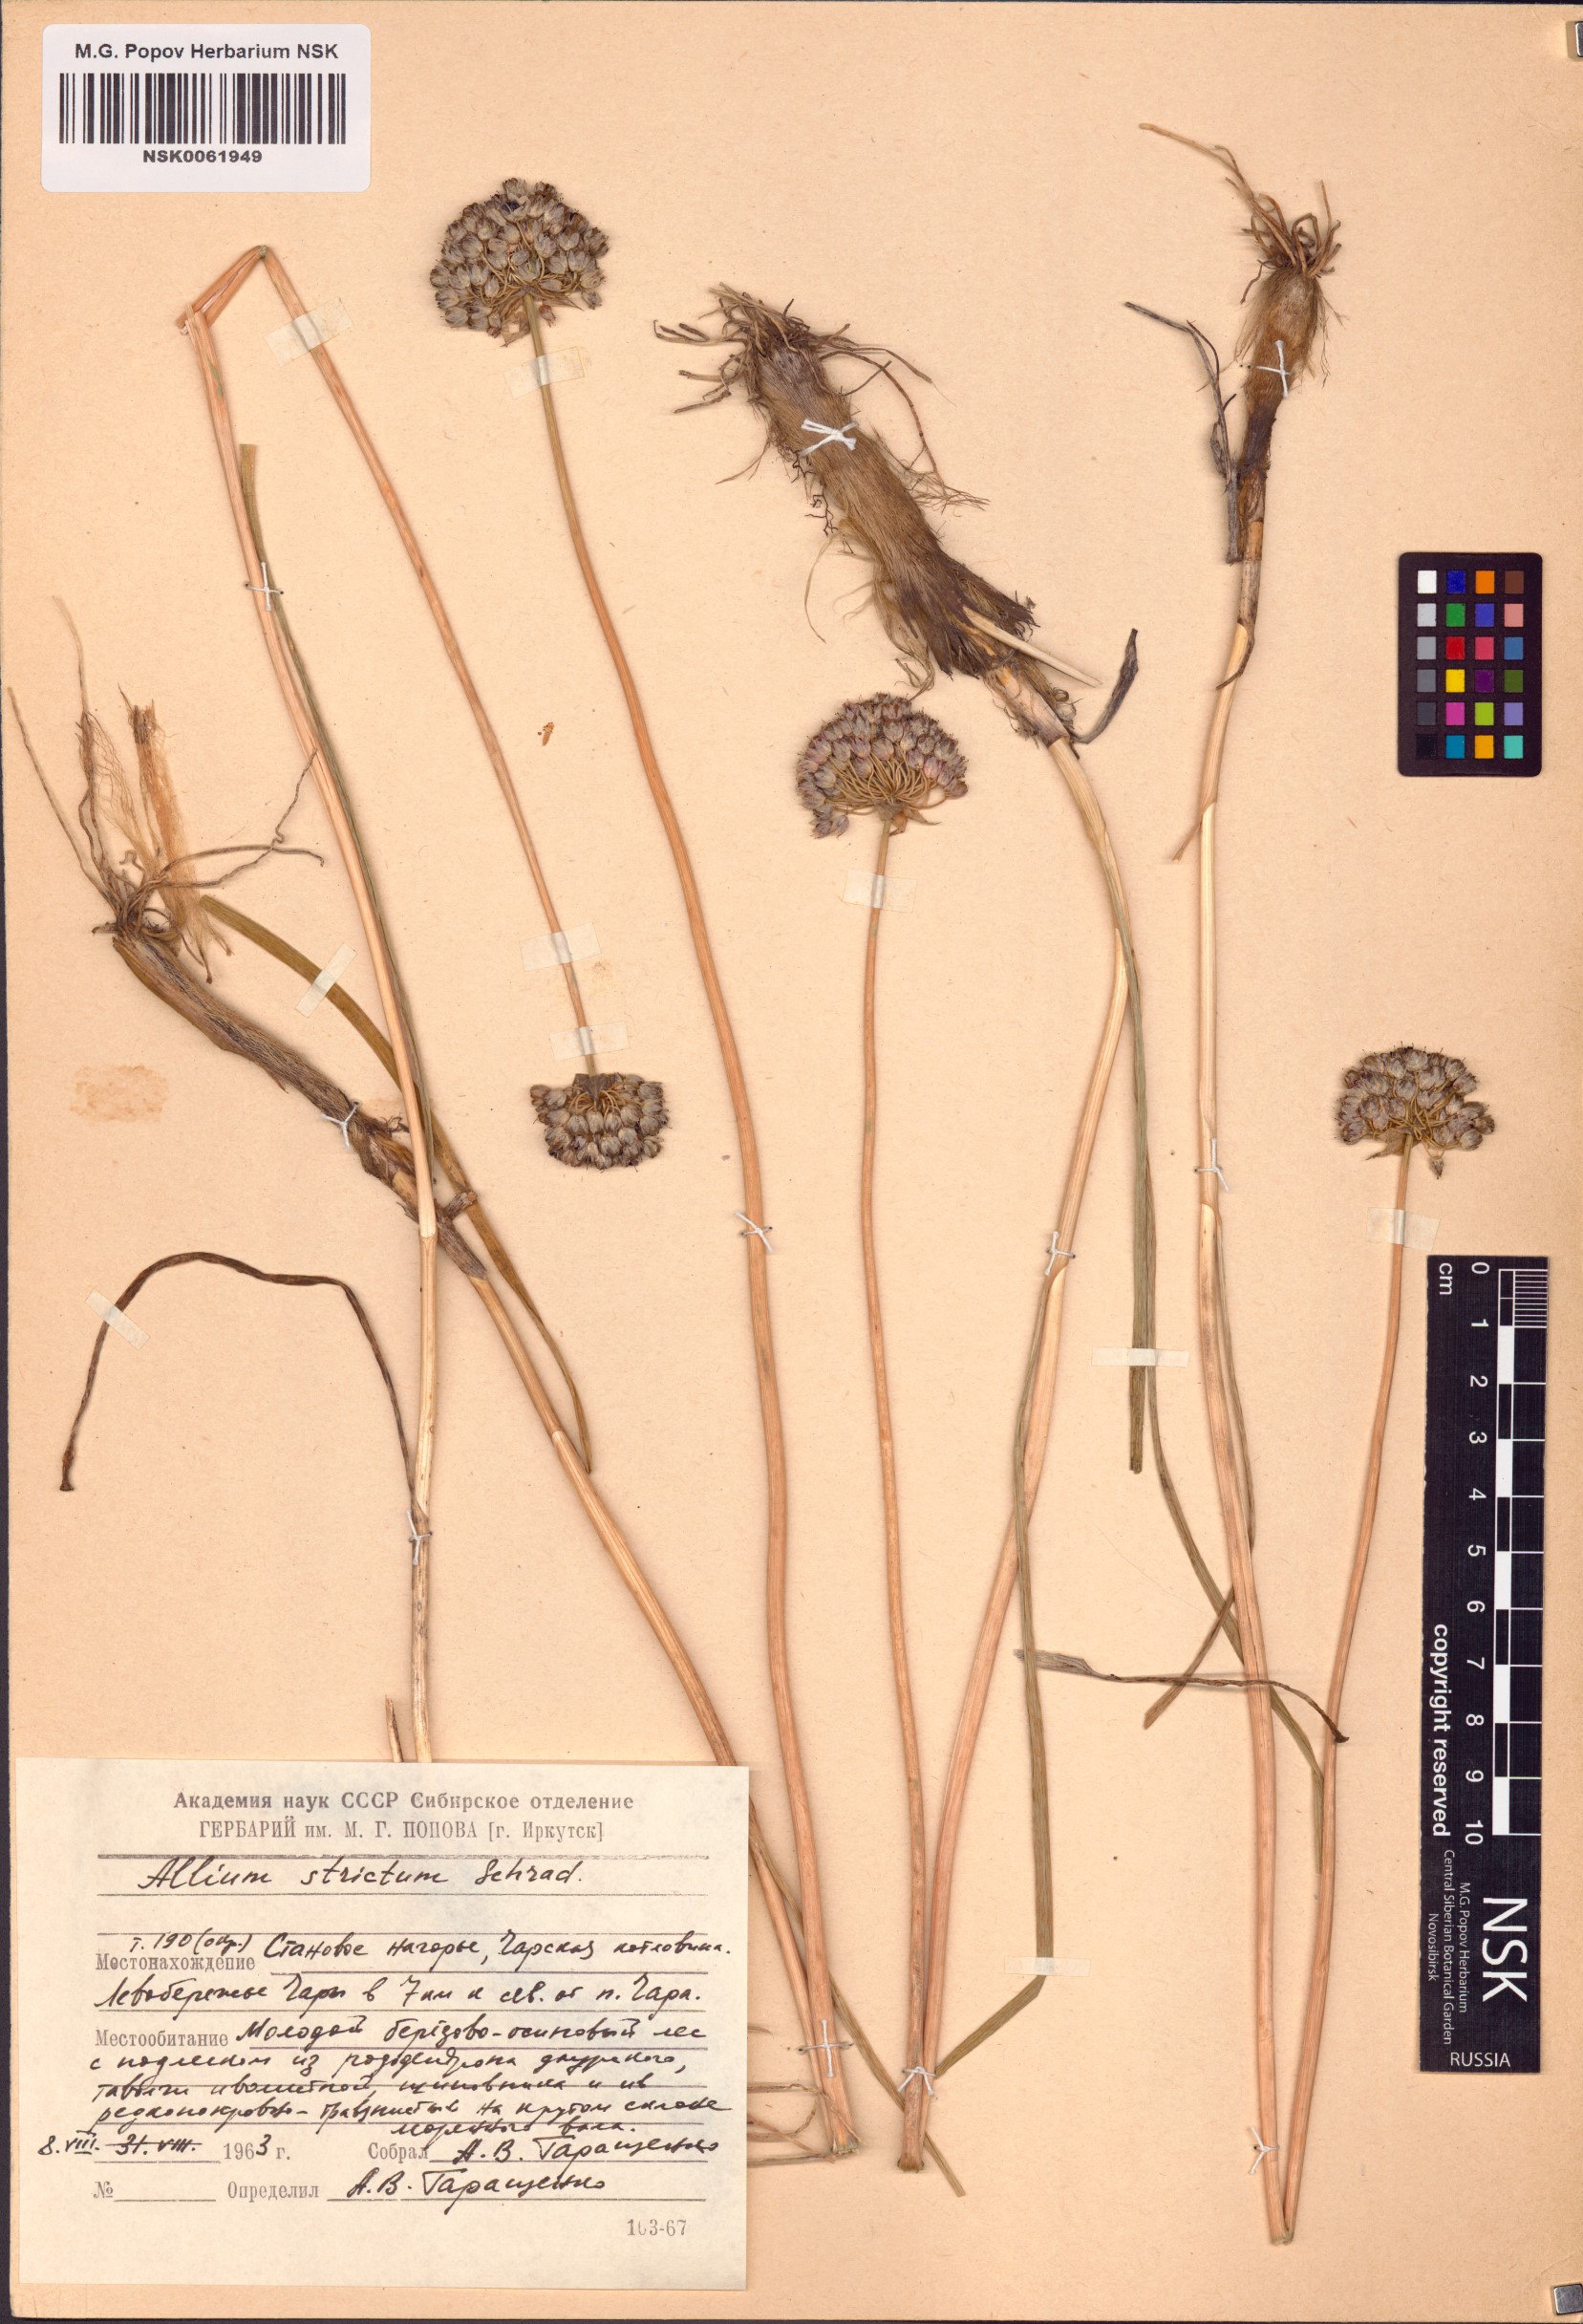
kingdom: Plantae
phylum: Tracheophyta
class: Liliopsida
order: Asparagales
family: Amaryllidaceae
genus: Allium
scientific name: Allium strictum
